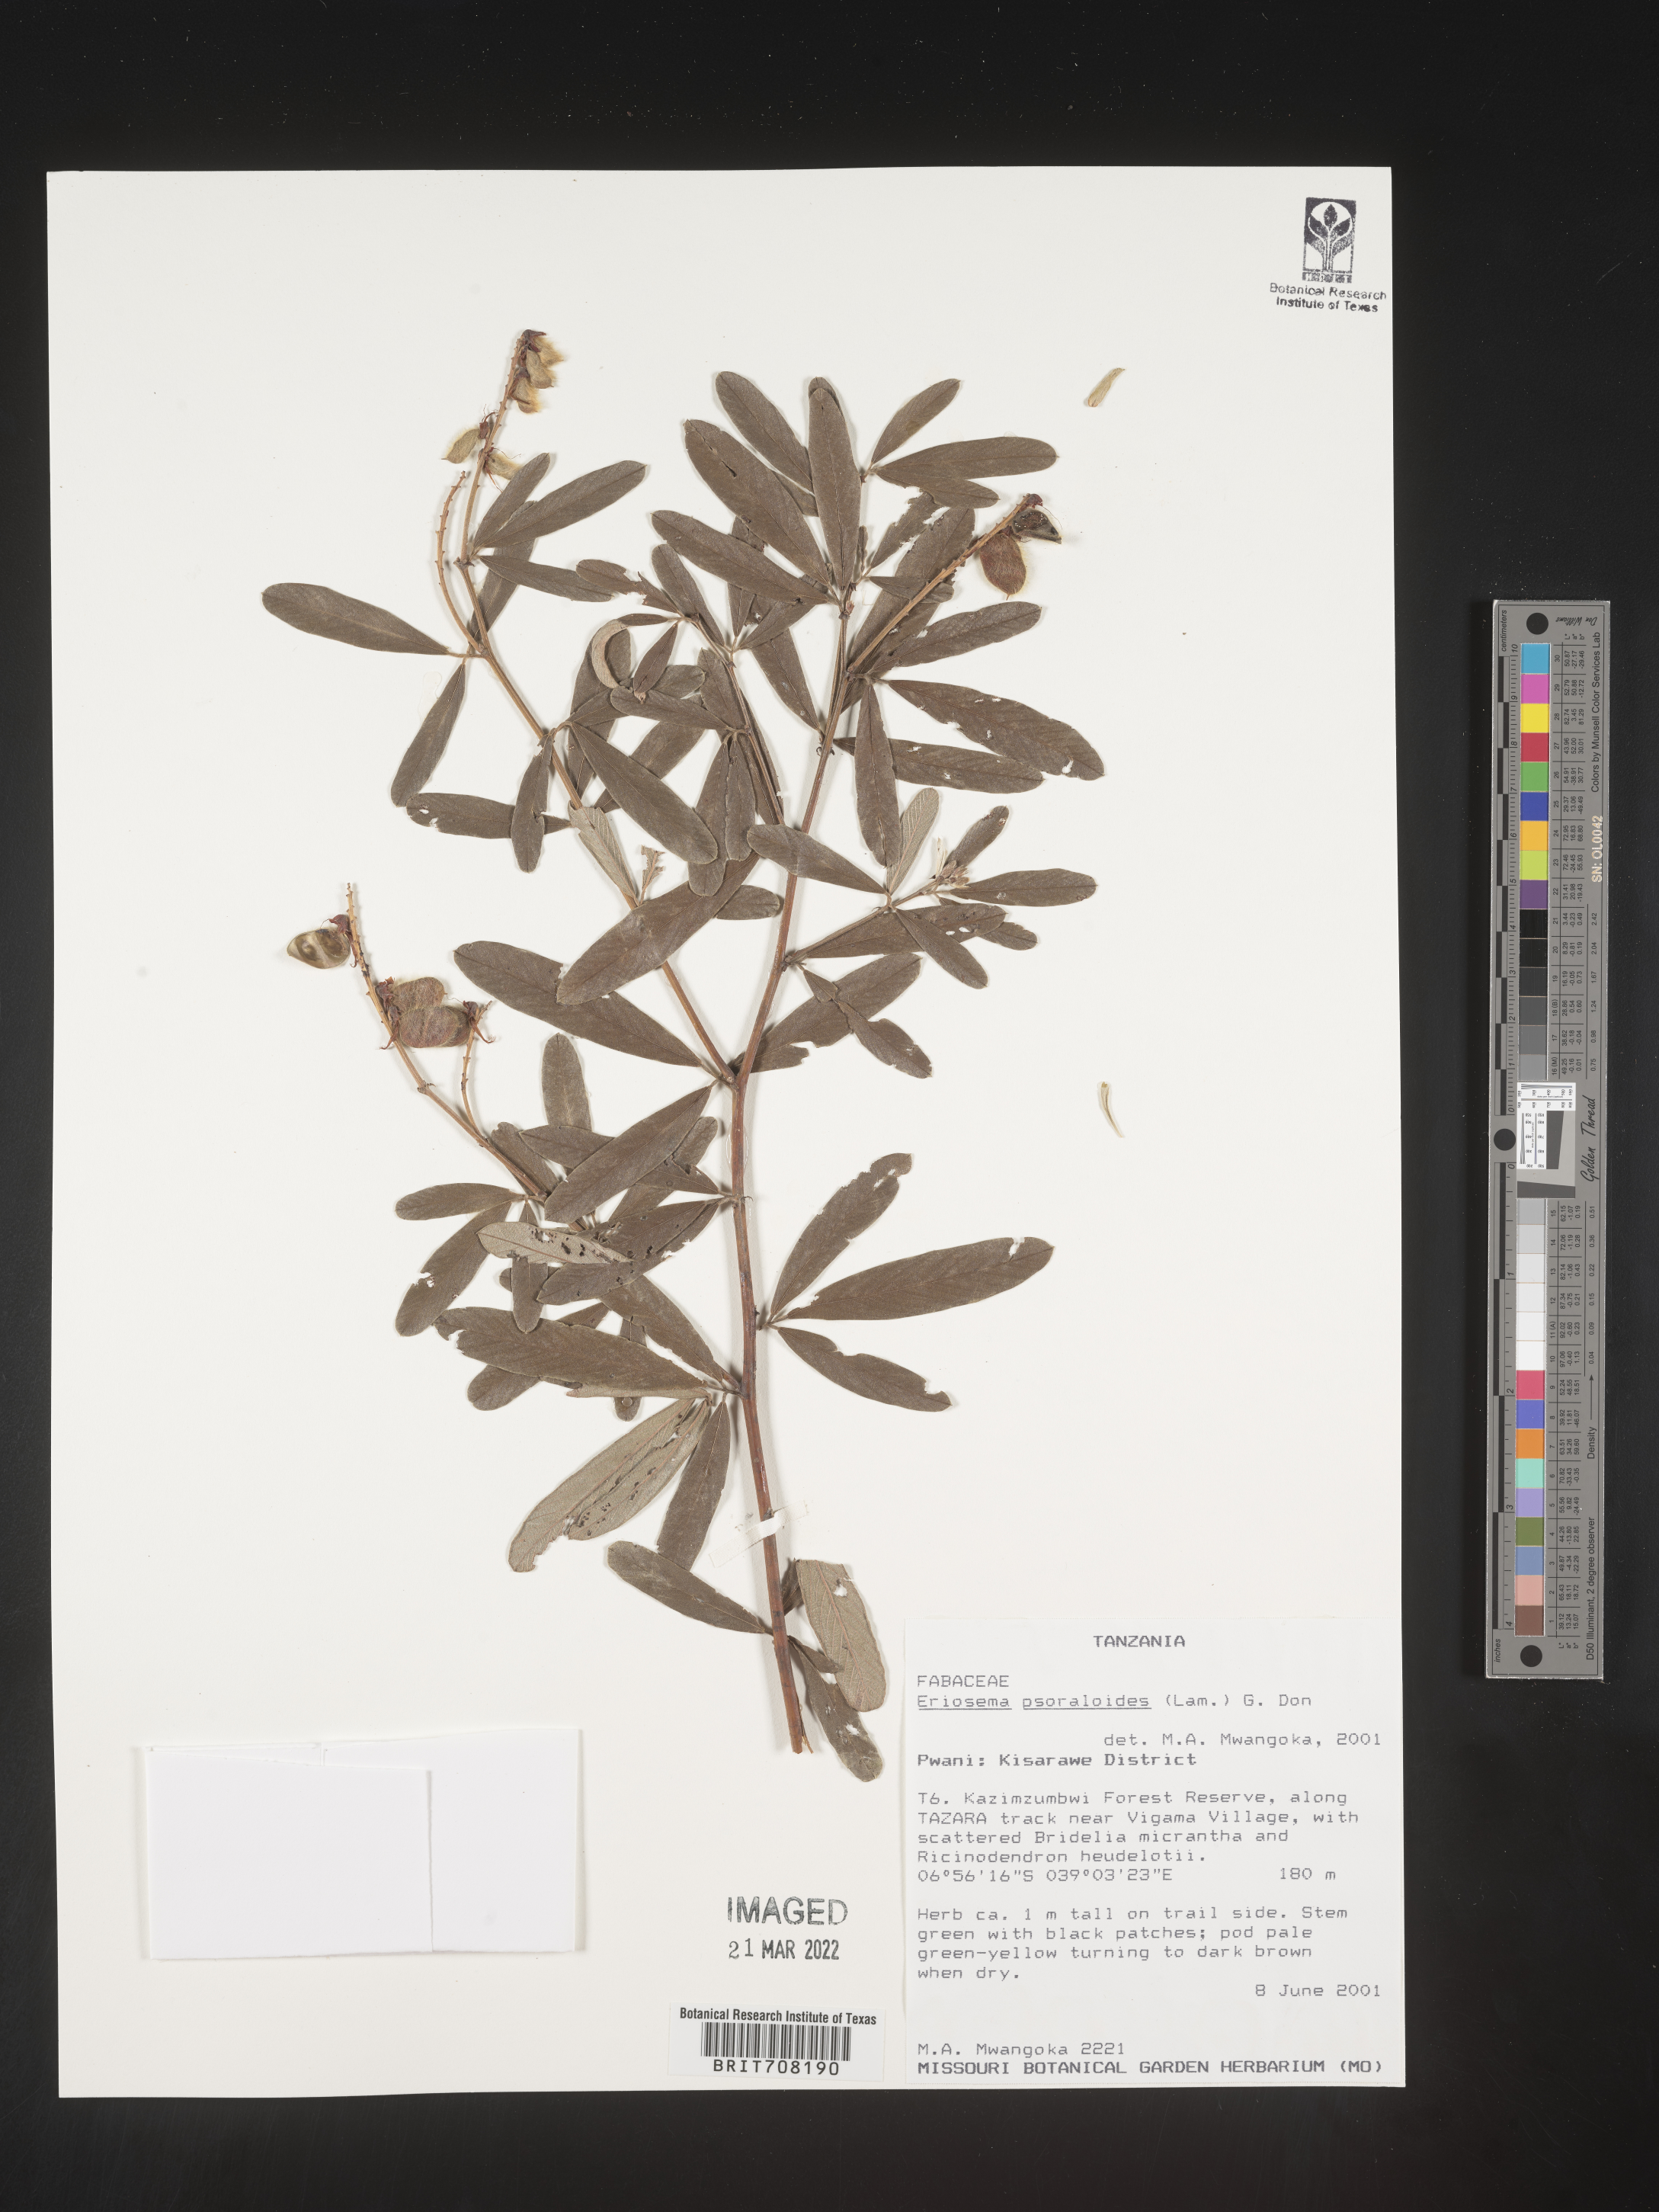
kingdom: Plantae
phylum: Tracheophyta
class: Magnoliopsida
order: Fabales
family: Fabaceae
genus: Eriosema
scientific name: Eriosema
